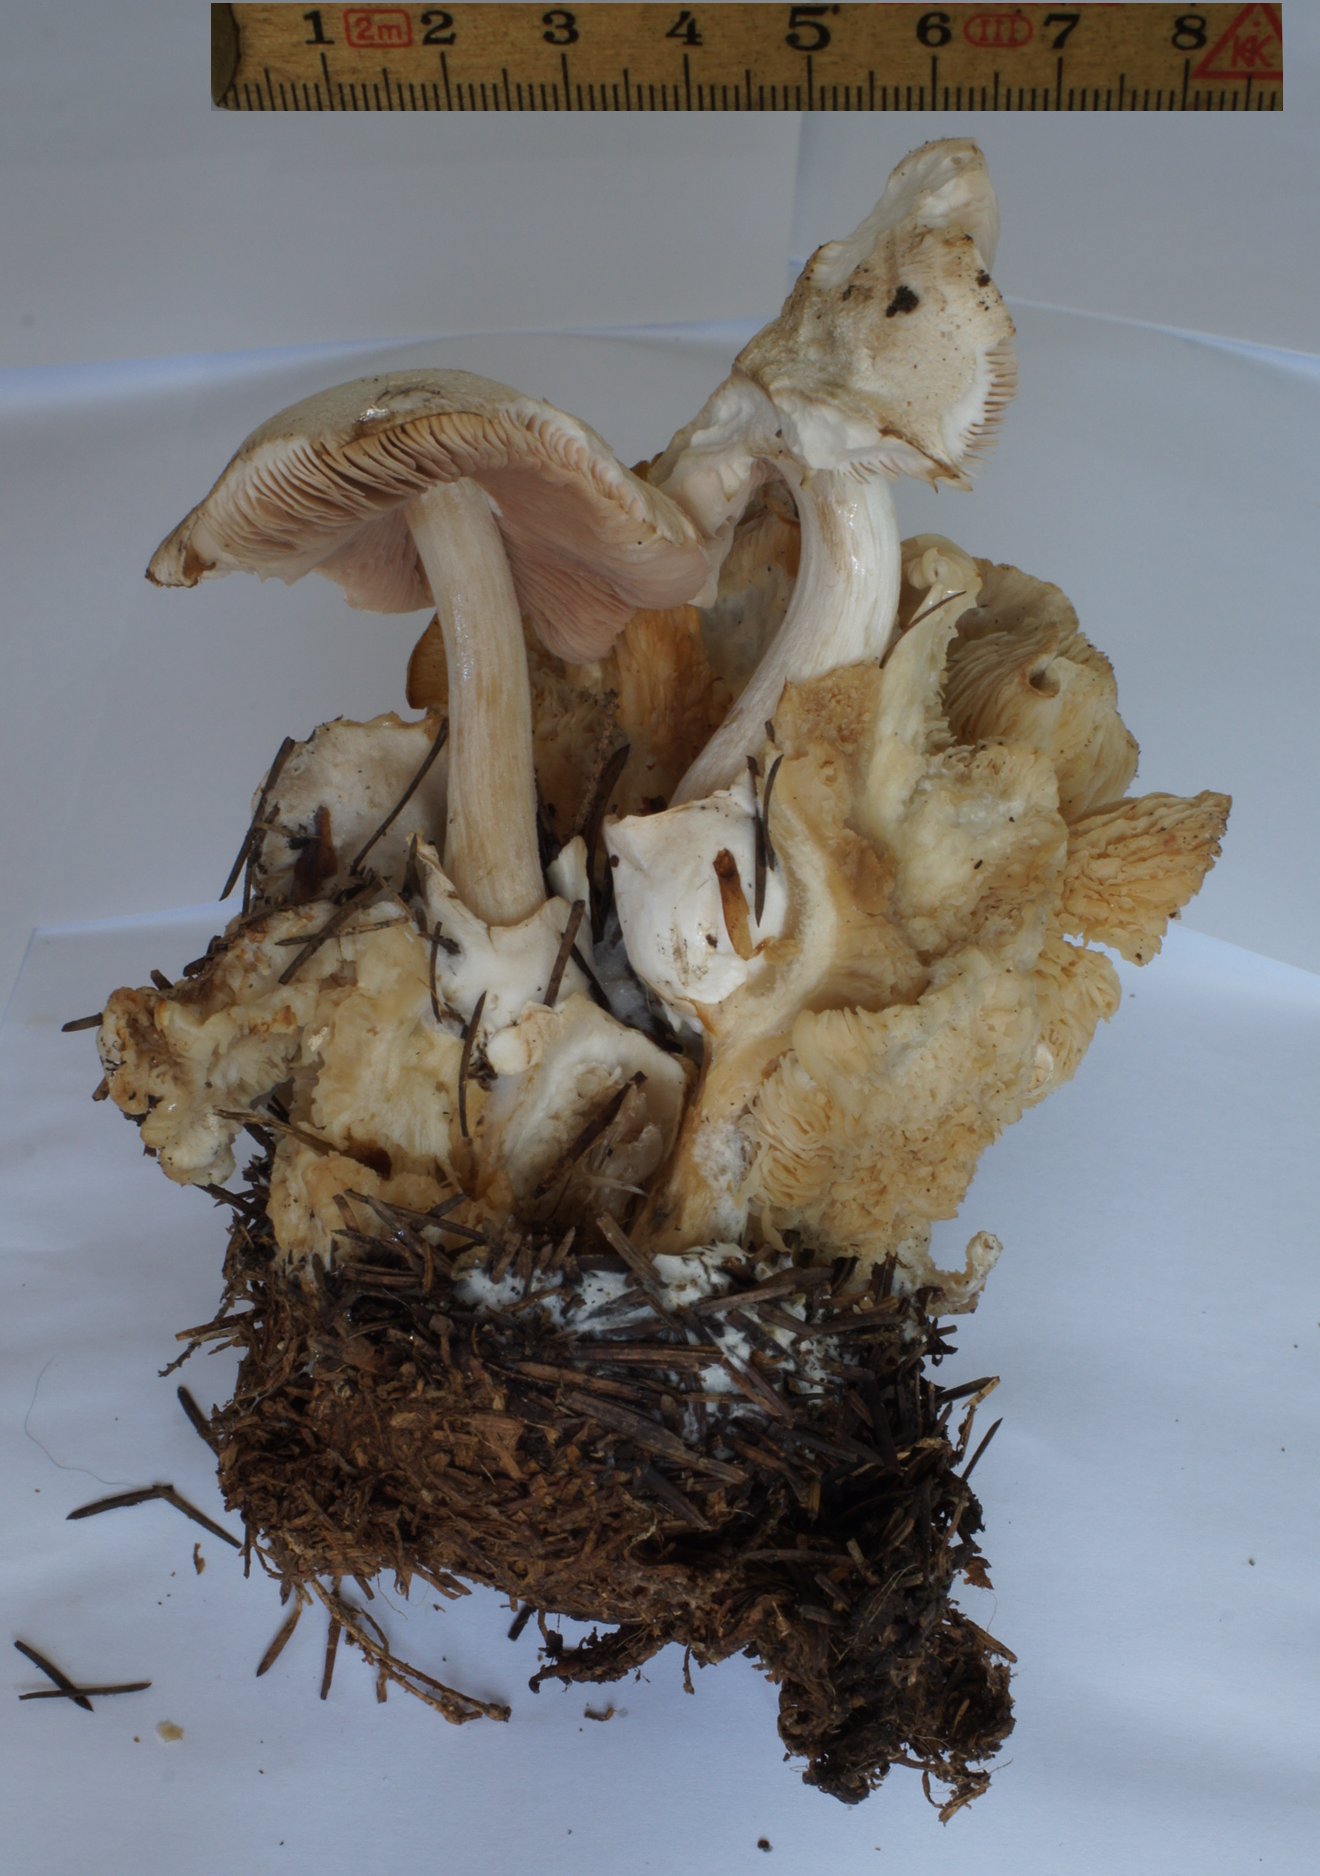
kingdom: Fungi
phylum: Basidiomycota
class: Agaricomycetes
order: Agaricales
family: Pluteaceae
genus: Volvariella
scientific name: Volvariella surrecta
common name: snyltende posesvamp
